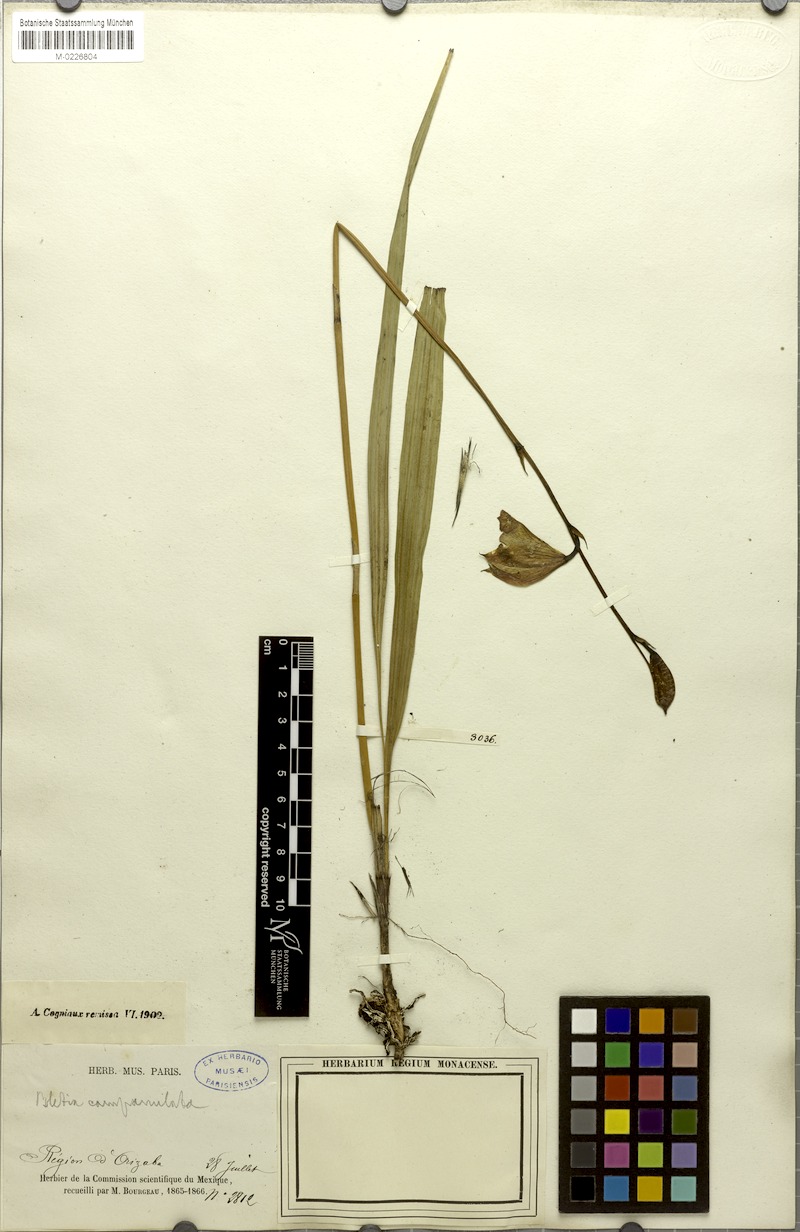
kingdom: Plantae
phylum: Tracheophyta
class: Liliopsida
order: Asparagales
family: Orchidaceae
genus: Bletia
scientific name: Bletia greenmaniana
